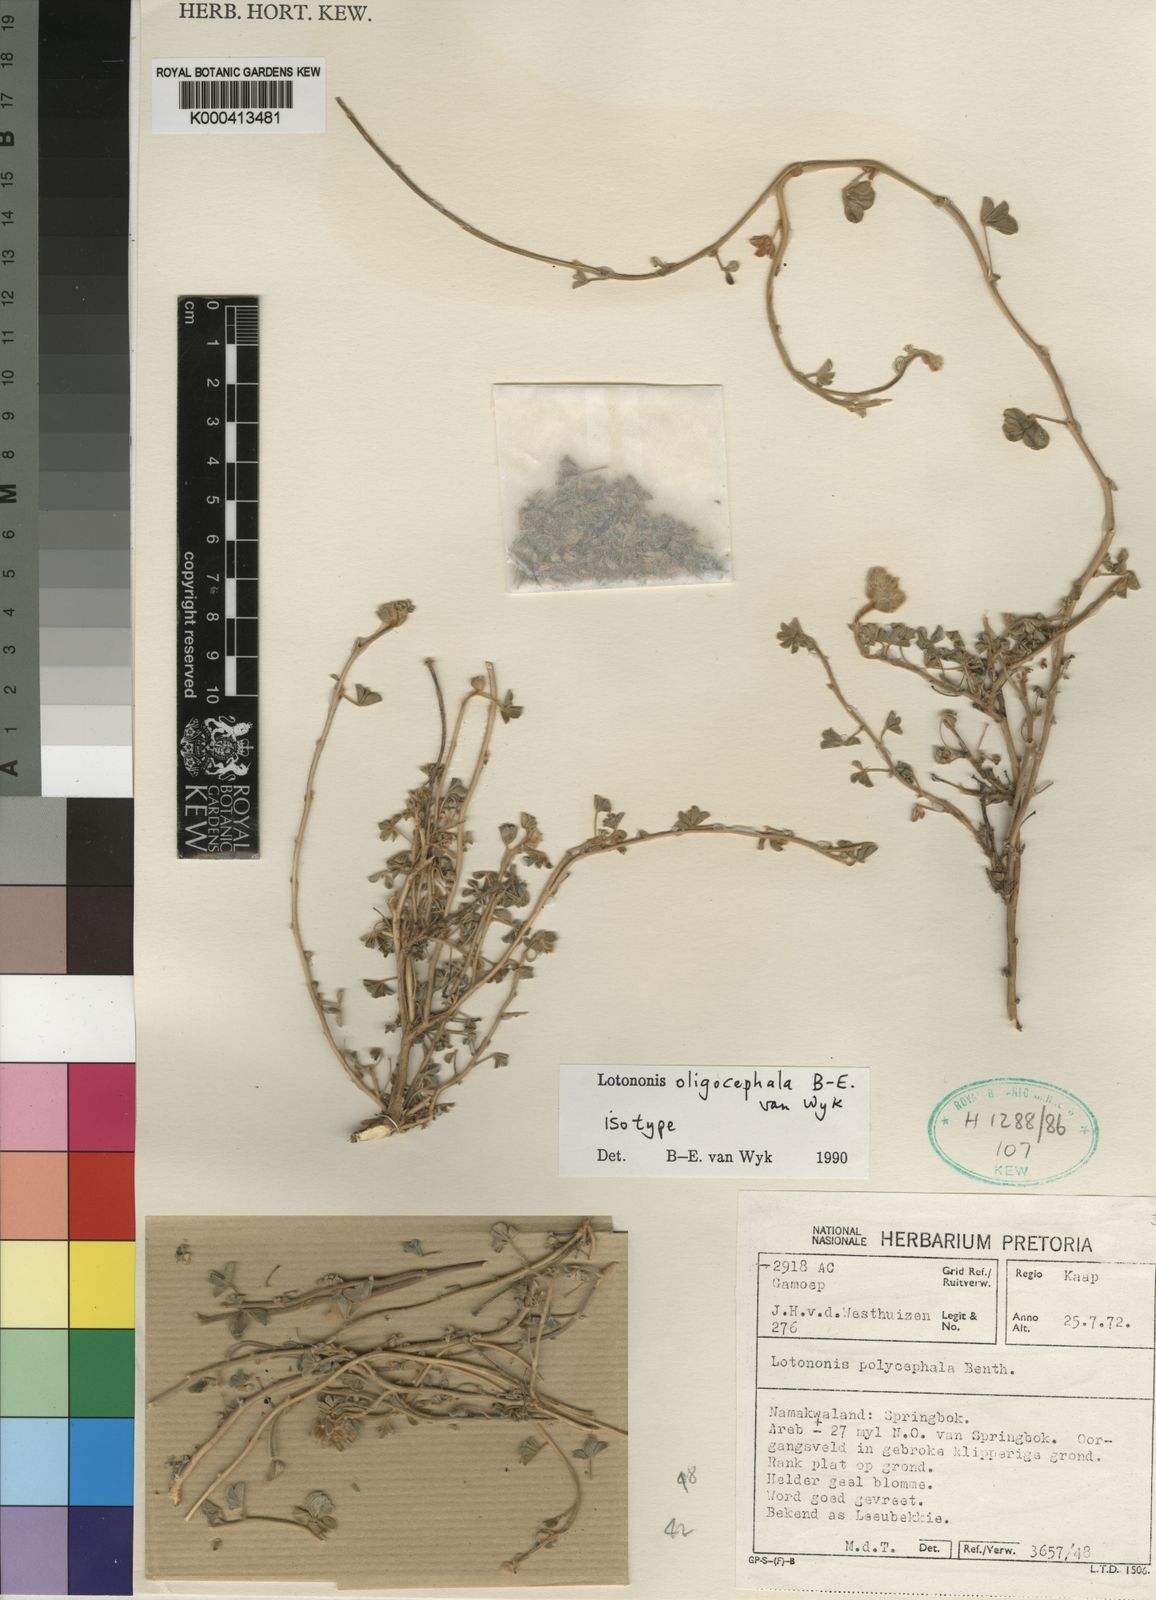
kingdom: Plantae
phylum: Tracheophyta
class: Magnoliopsida
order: Fabales
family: Fabaceae
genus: Leobordea
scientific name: Leobordea oligocephala
